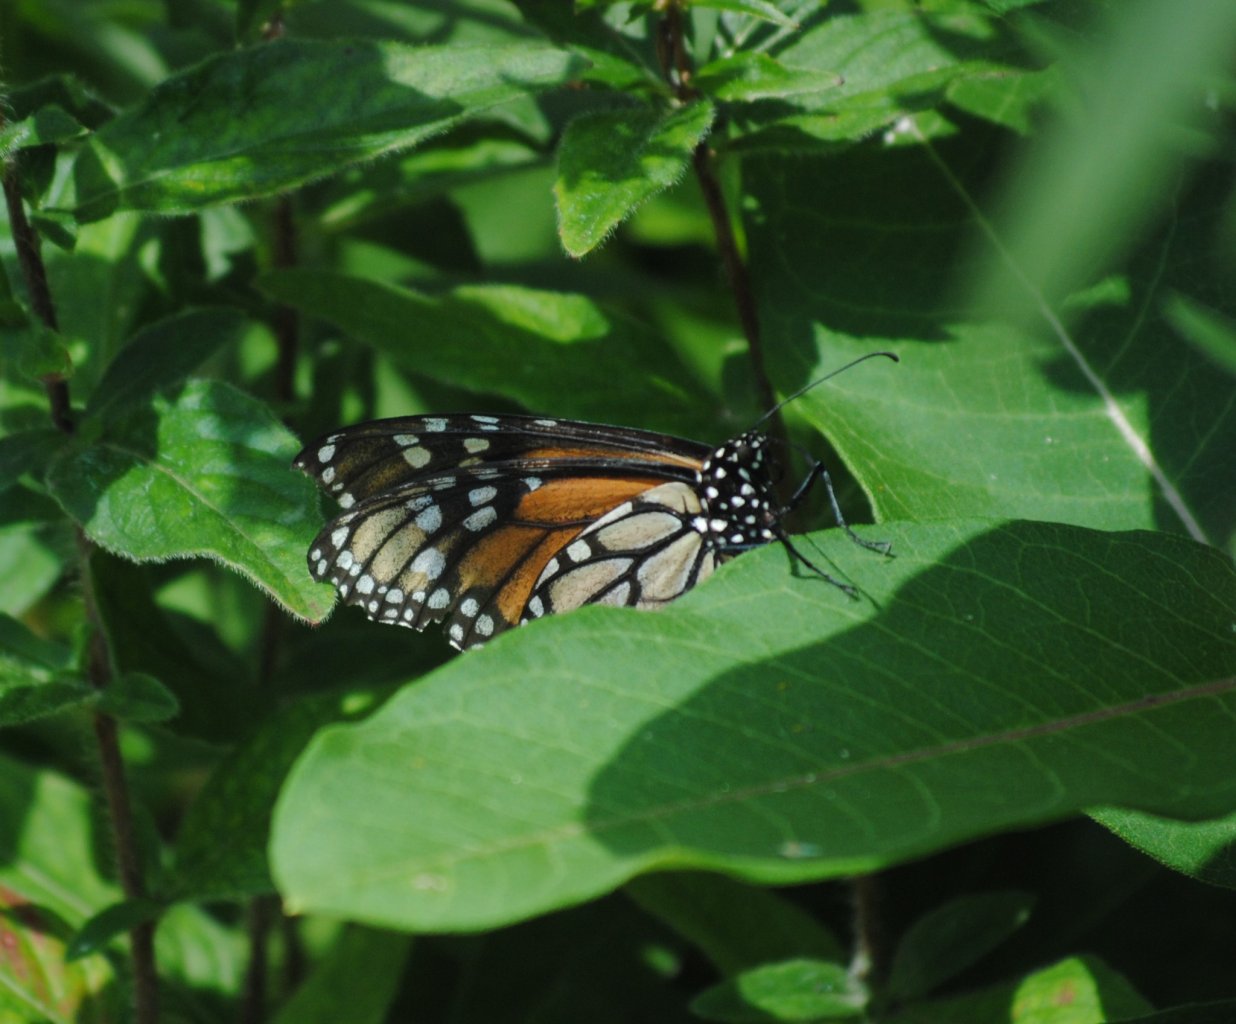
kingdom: Animalia
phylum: Arthropoda
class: Insecta
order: Lepidoptera
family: Nymphalidae
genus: Danaus
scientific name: Danaus plexippus
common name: Monarch
